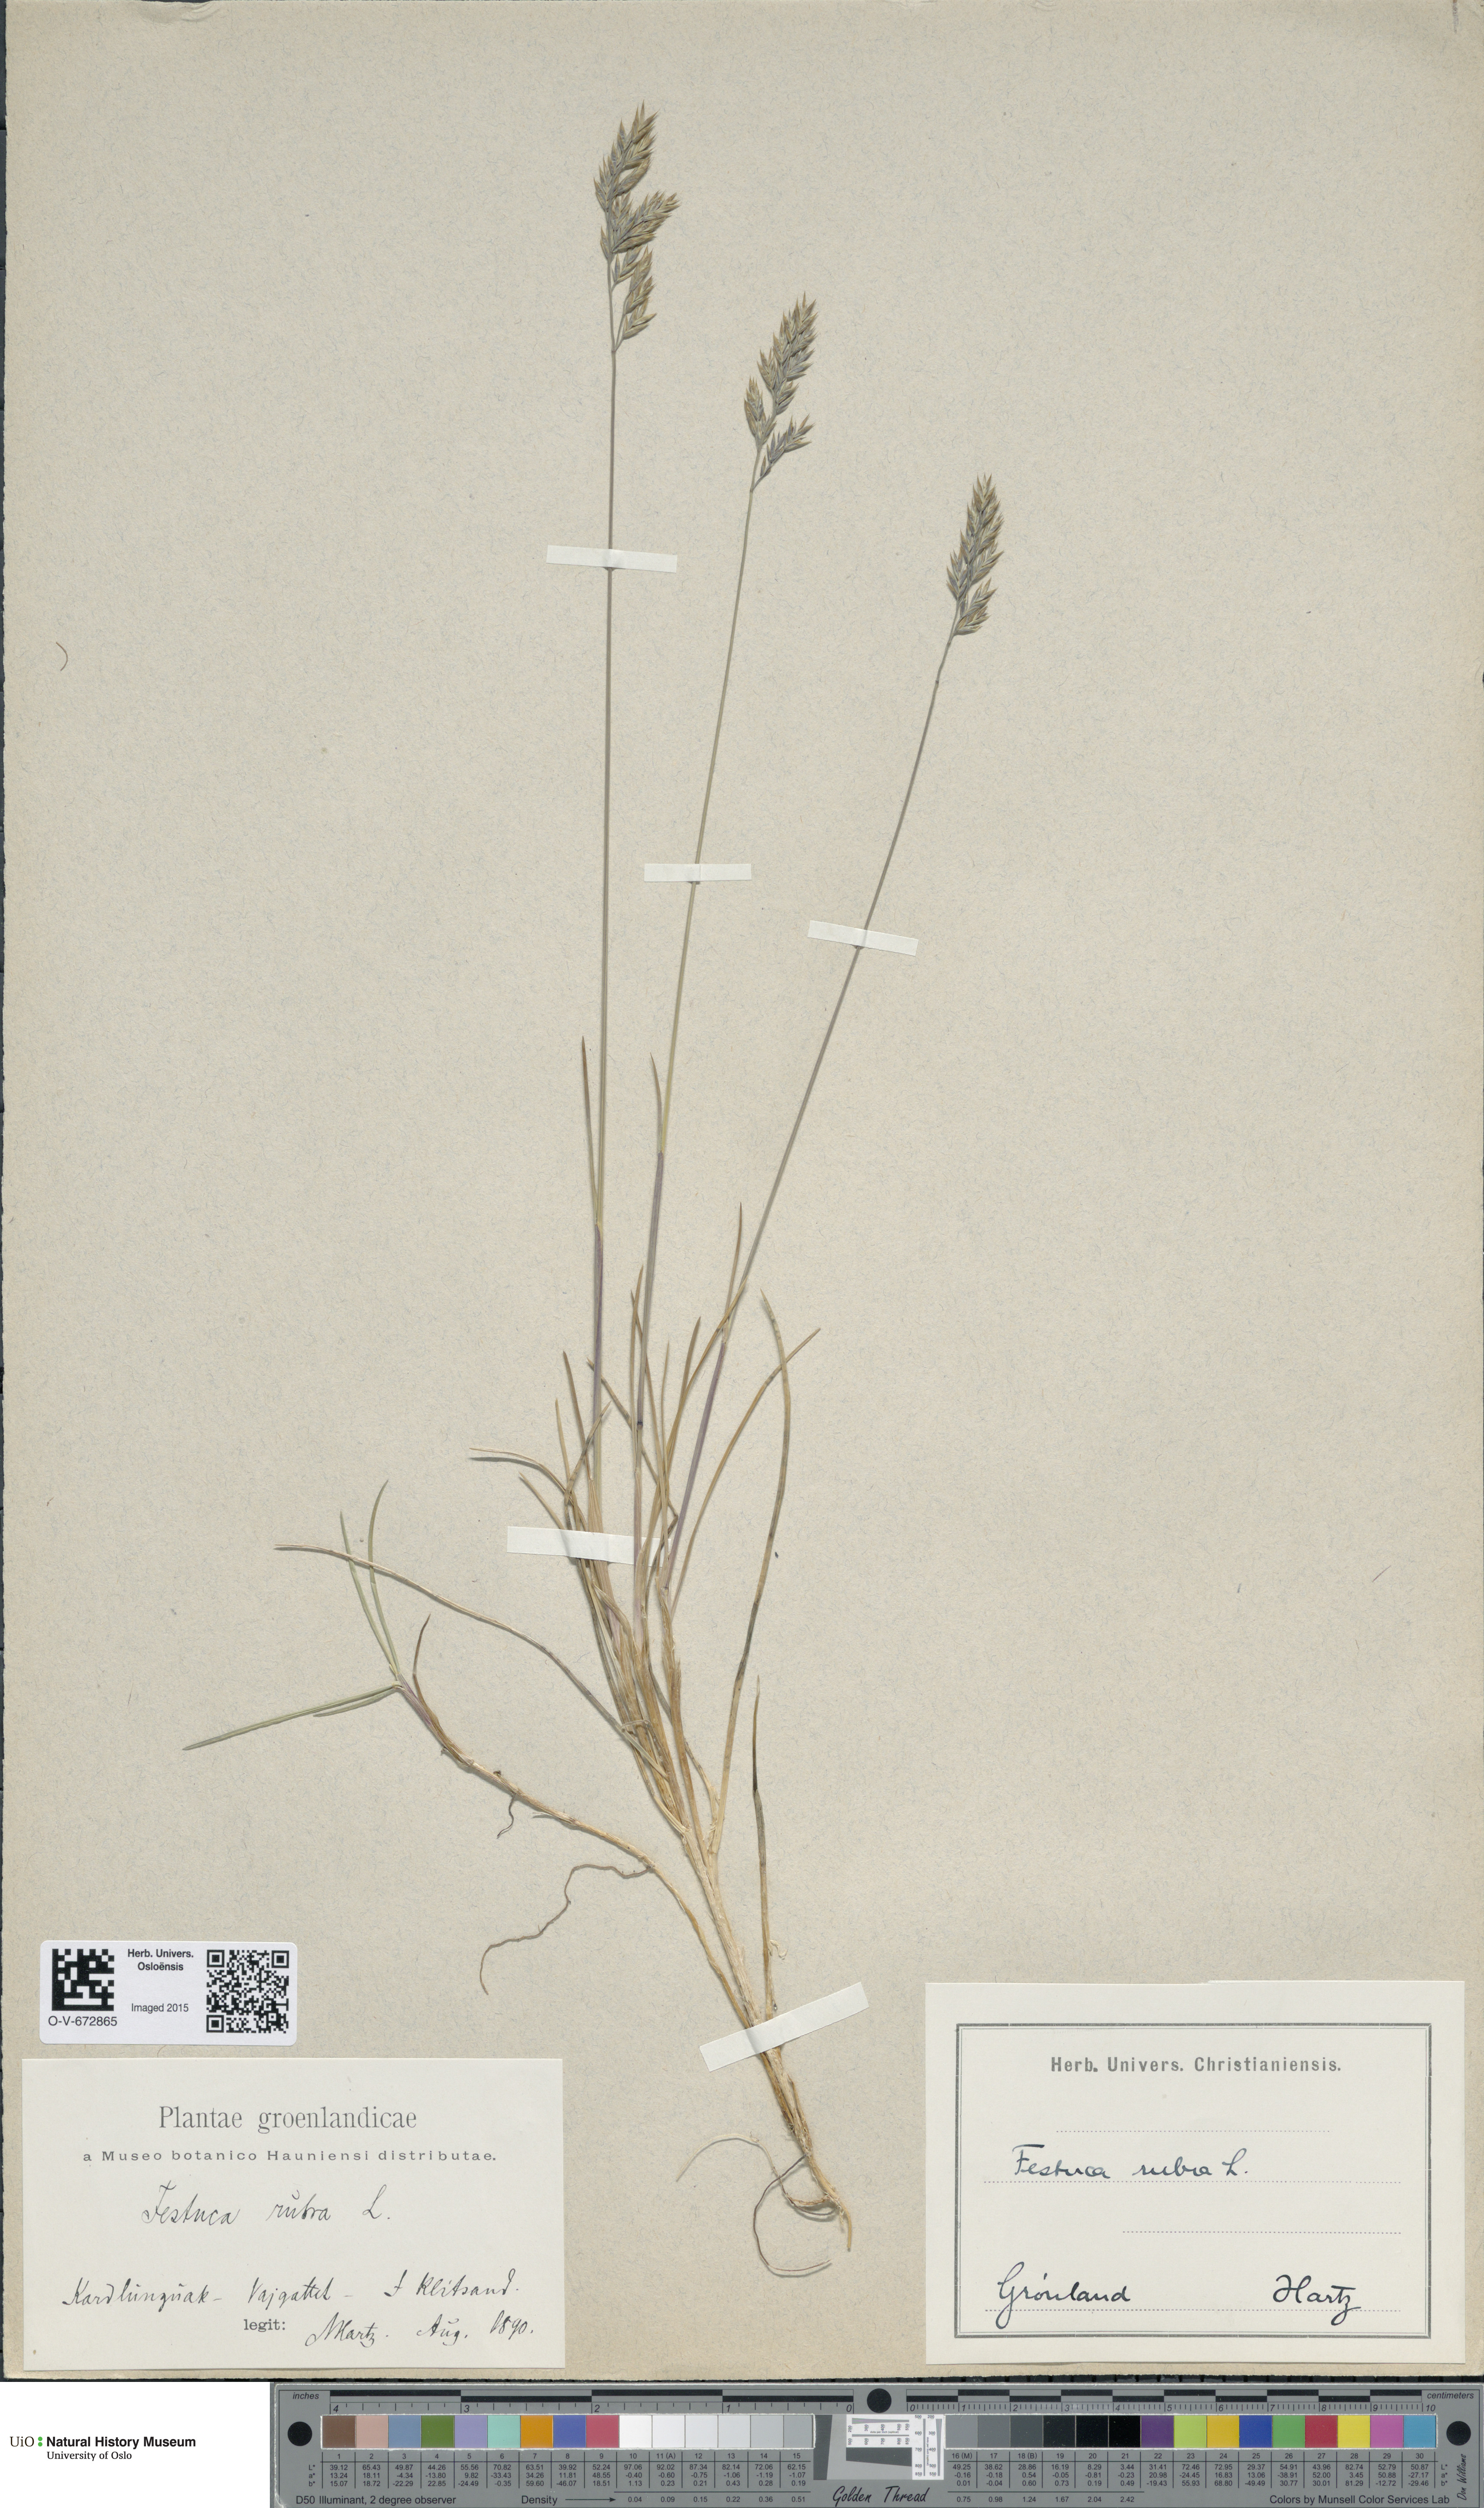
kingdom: Plantae
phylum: Tracheophyta
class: Liliopsida
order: Poales
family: Poaceae
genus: Festuca
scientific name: Festuca rubra
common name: Red fescue
